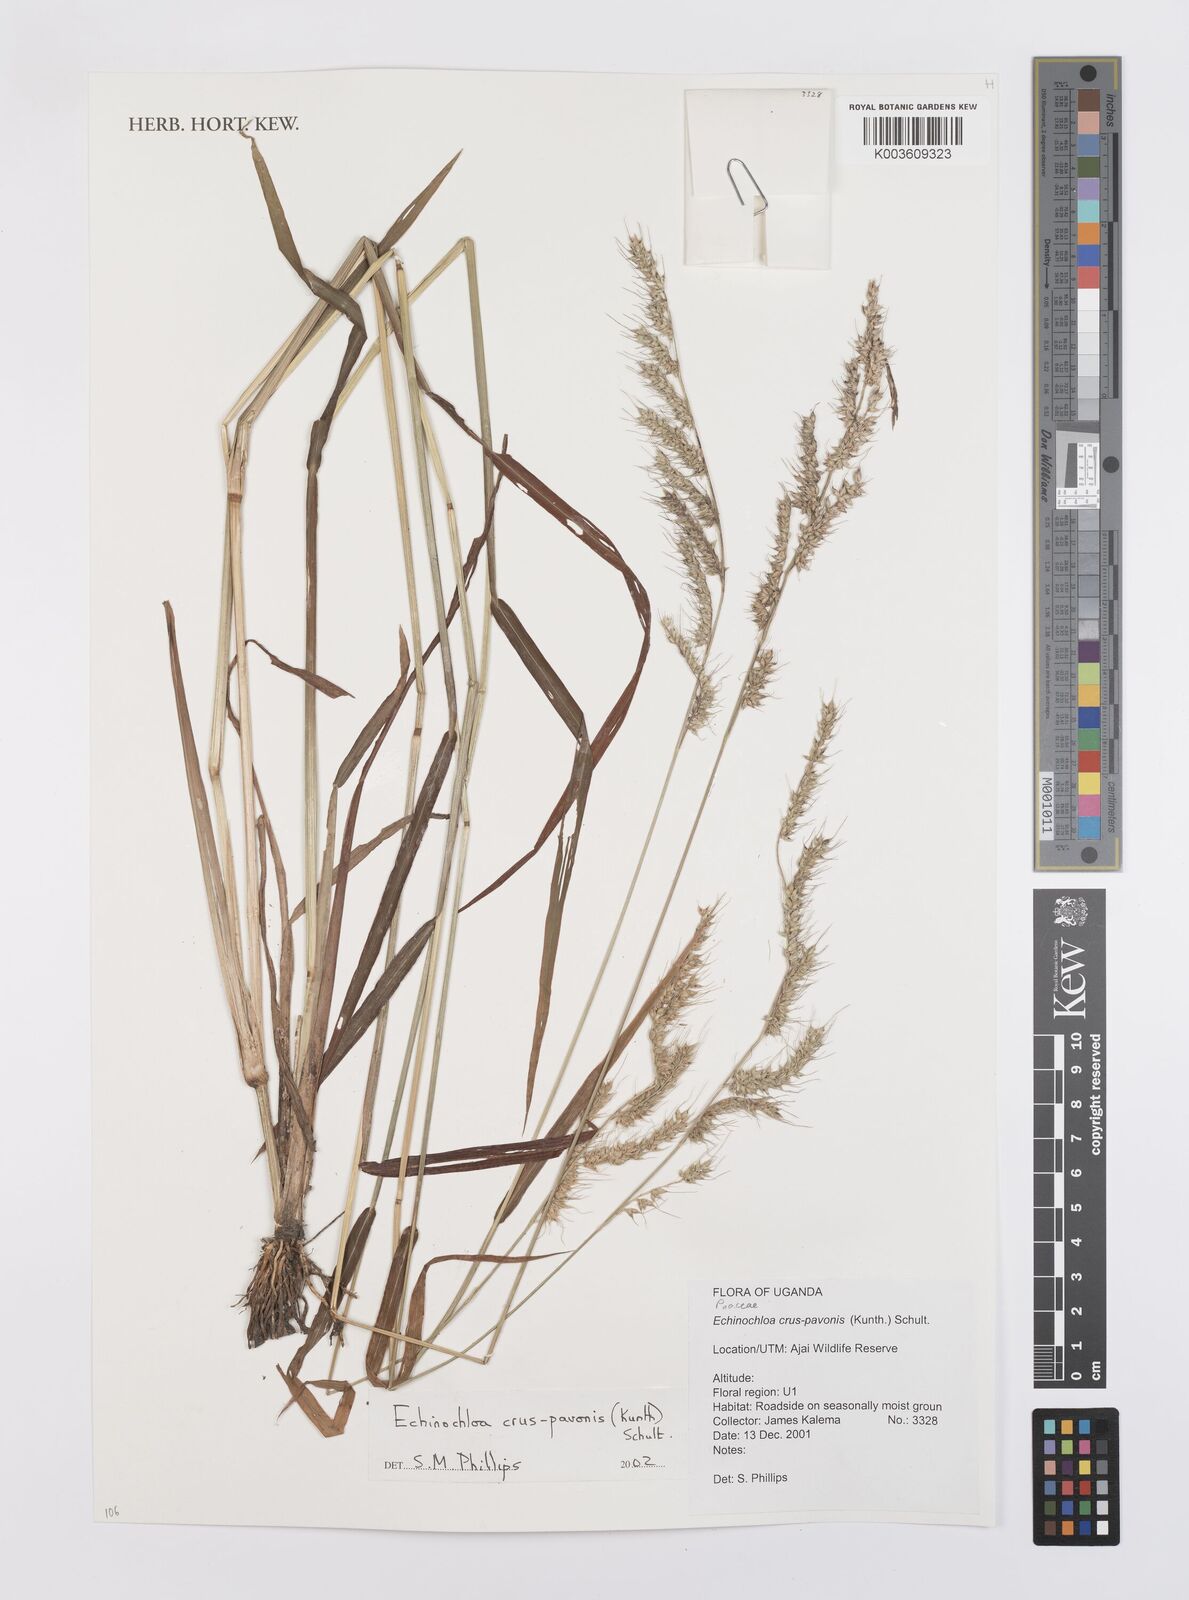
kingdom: Plantae
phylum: Tracheophyta
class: Liliopsida
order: Poales
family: Poaceae
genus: Echinochloa
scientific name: Echinochloa crus-pavonis
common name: Gulf cockspur grass
